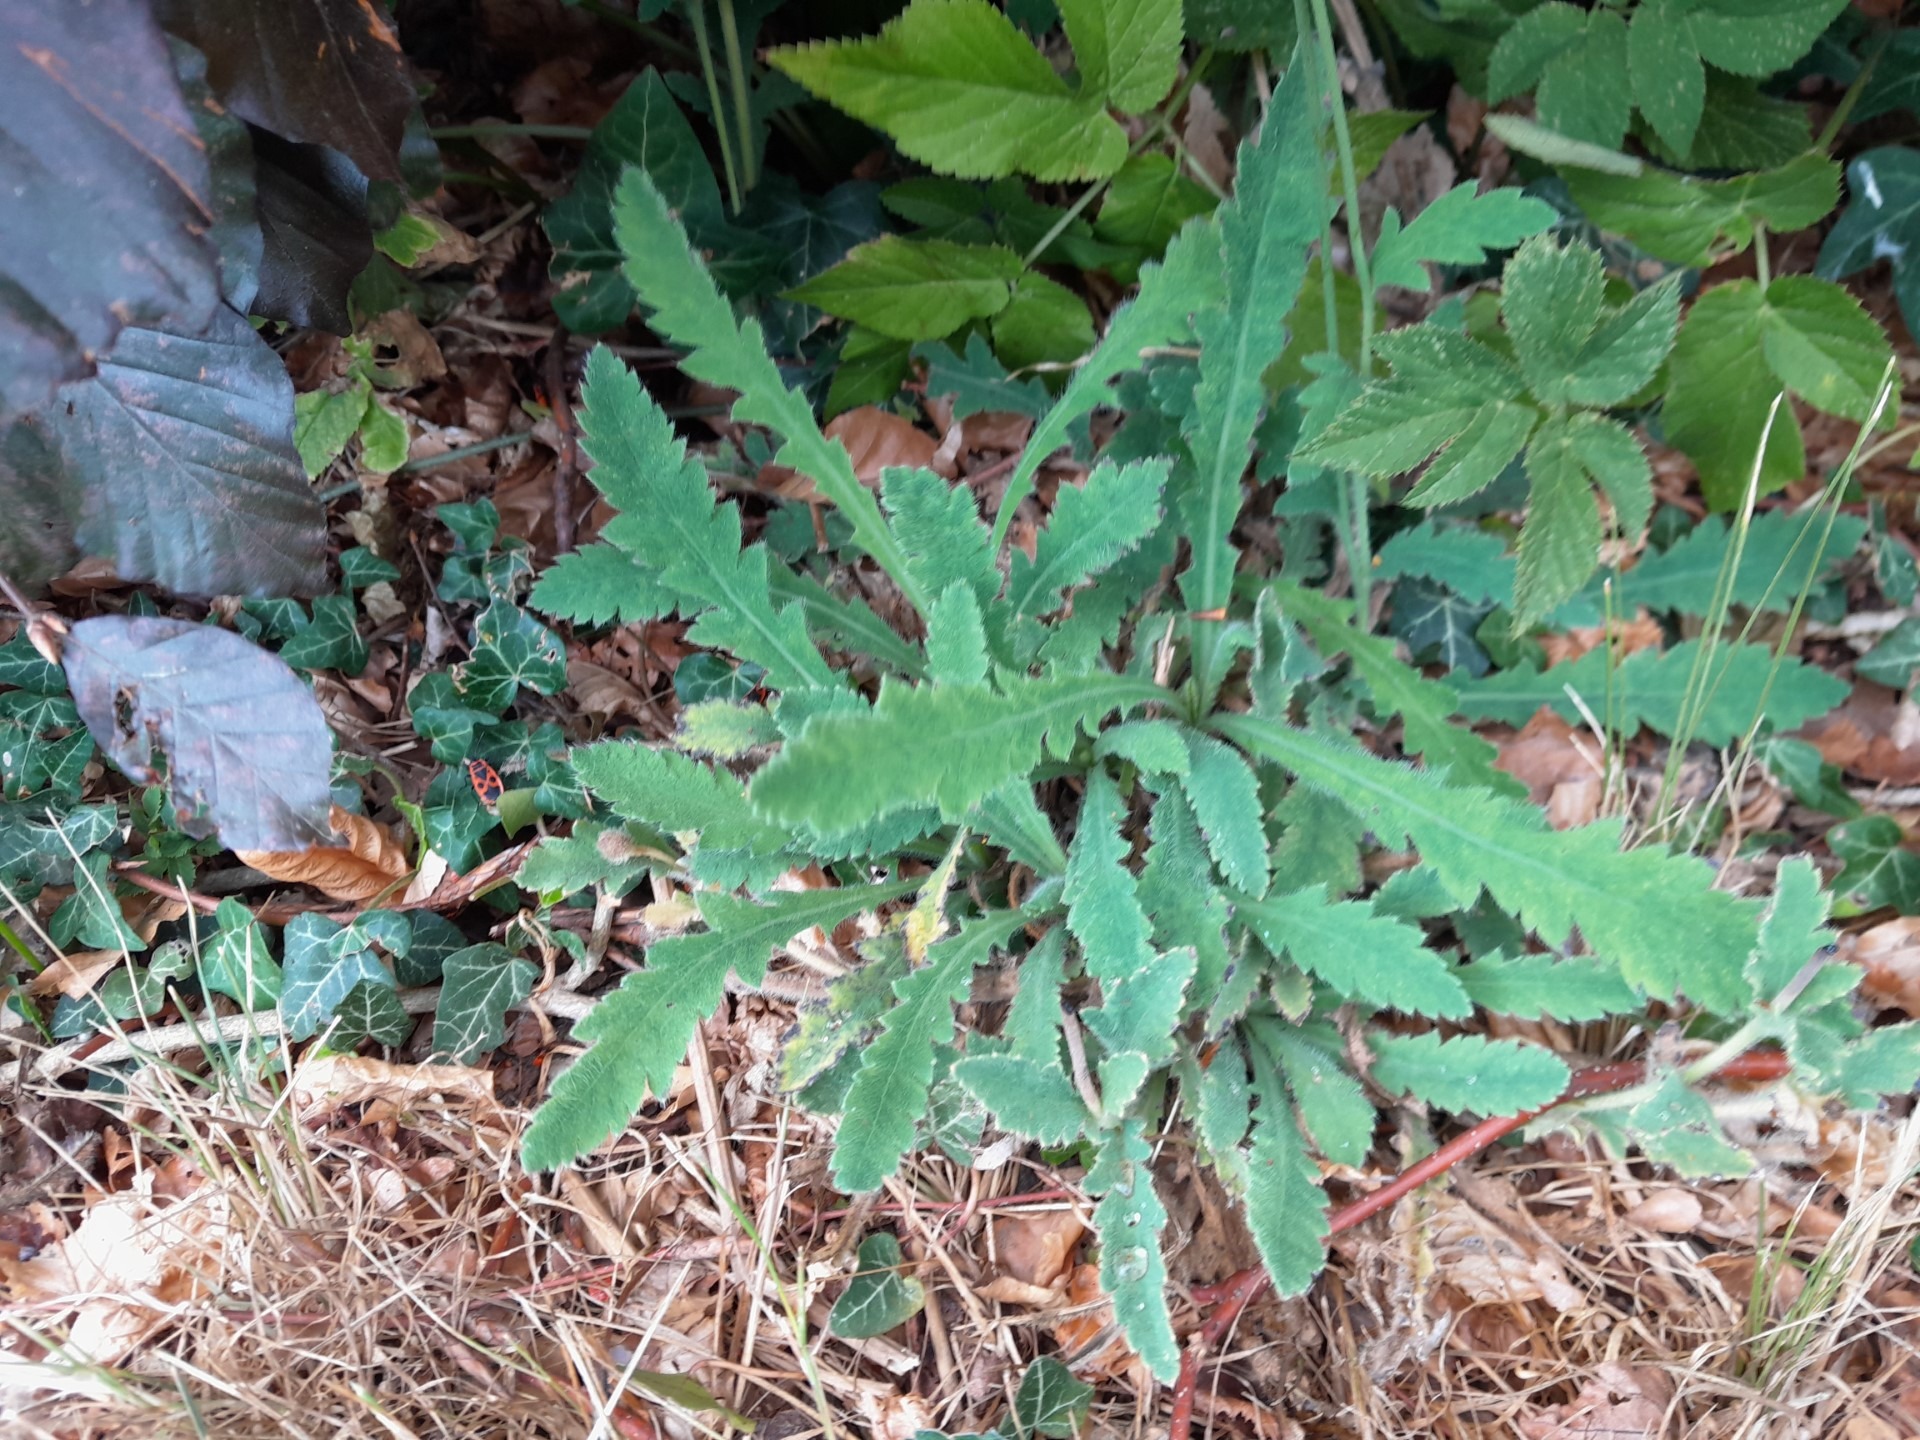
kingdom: Plantae
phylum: Tracheophyta
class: Magnoliopsida
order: Ranunculales
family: Papaveraceae
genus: Papaver
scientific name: Papaver atlanticum
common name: Atlas-valmue
